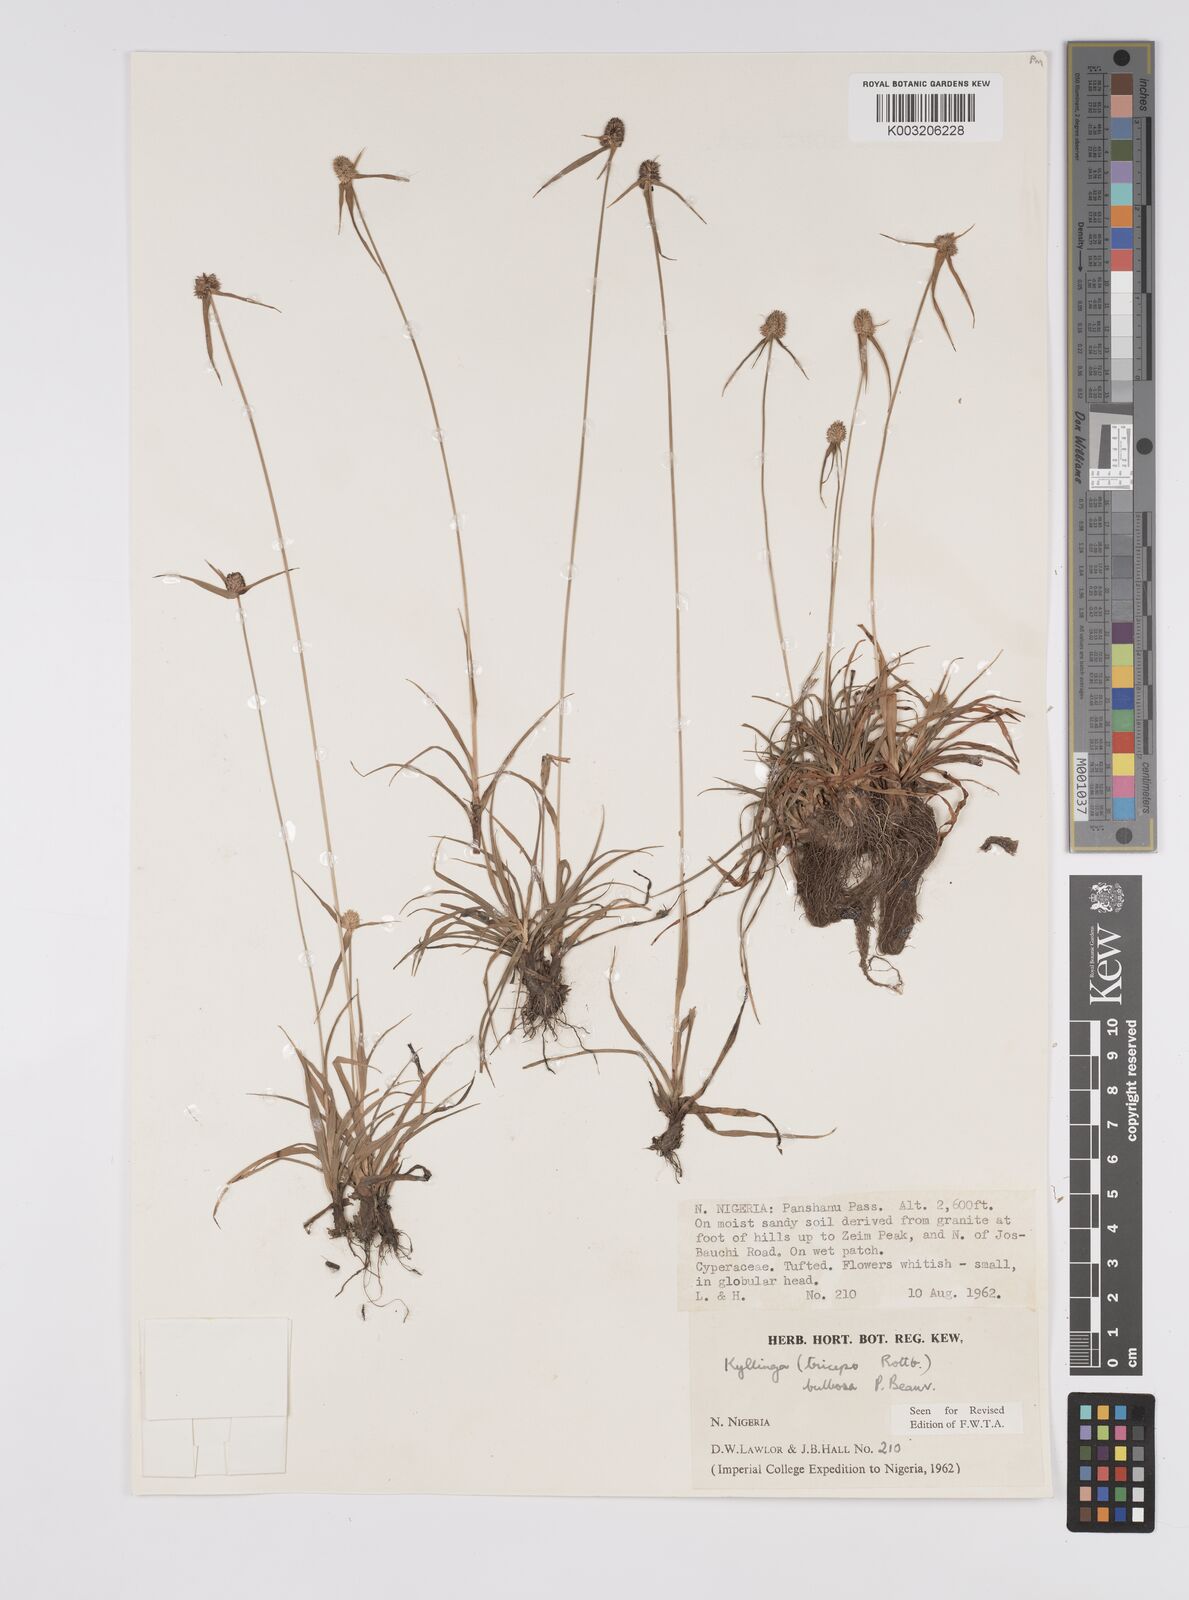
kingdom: Plantae
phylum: Tracheophyta
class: Liliopsida
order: Poales
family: Cyperaceae
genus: Cyperus
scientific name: Cyperus
